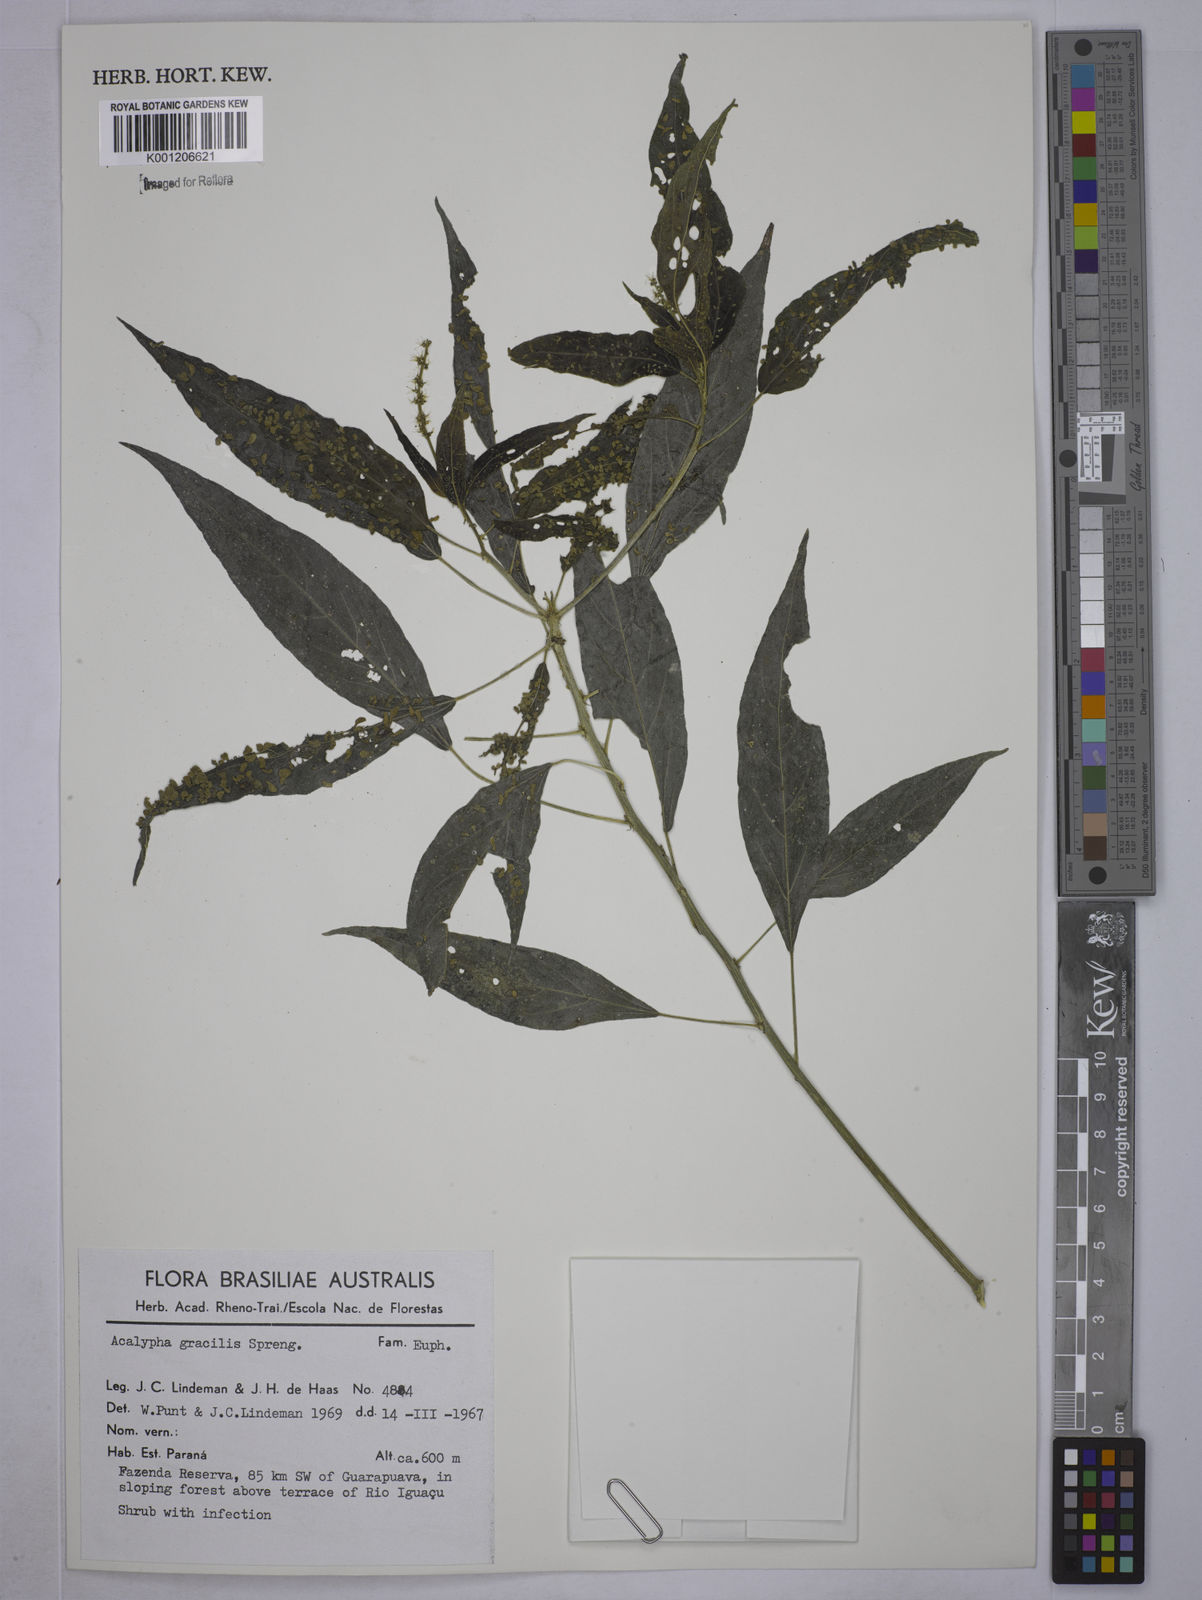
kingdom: Plantae
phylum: Tracheophyta
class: Magnoliopsida
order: Malpighiales
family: Euphorbiaceae
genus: Acalypha
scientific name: Acalypha gracilis
